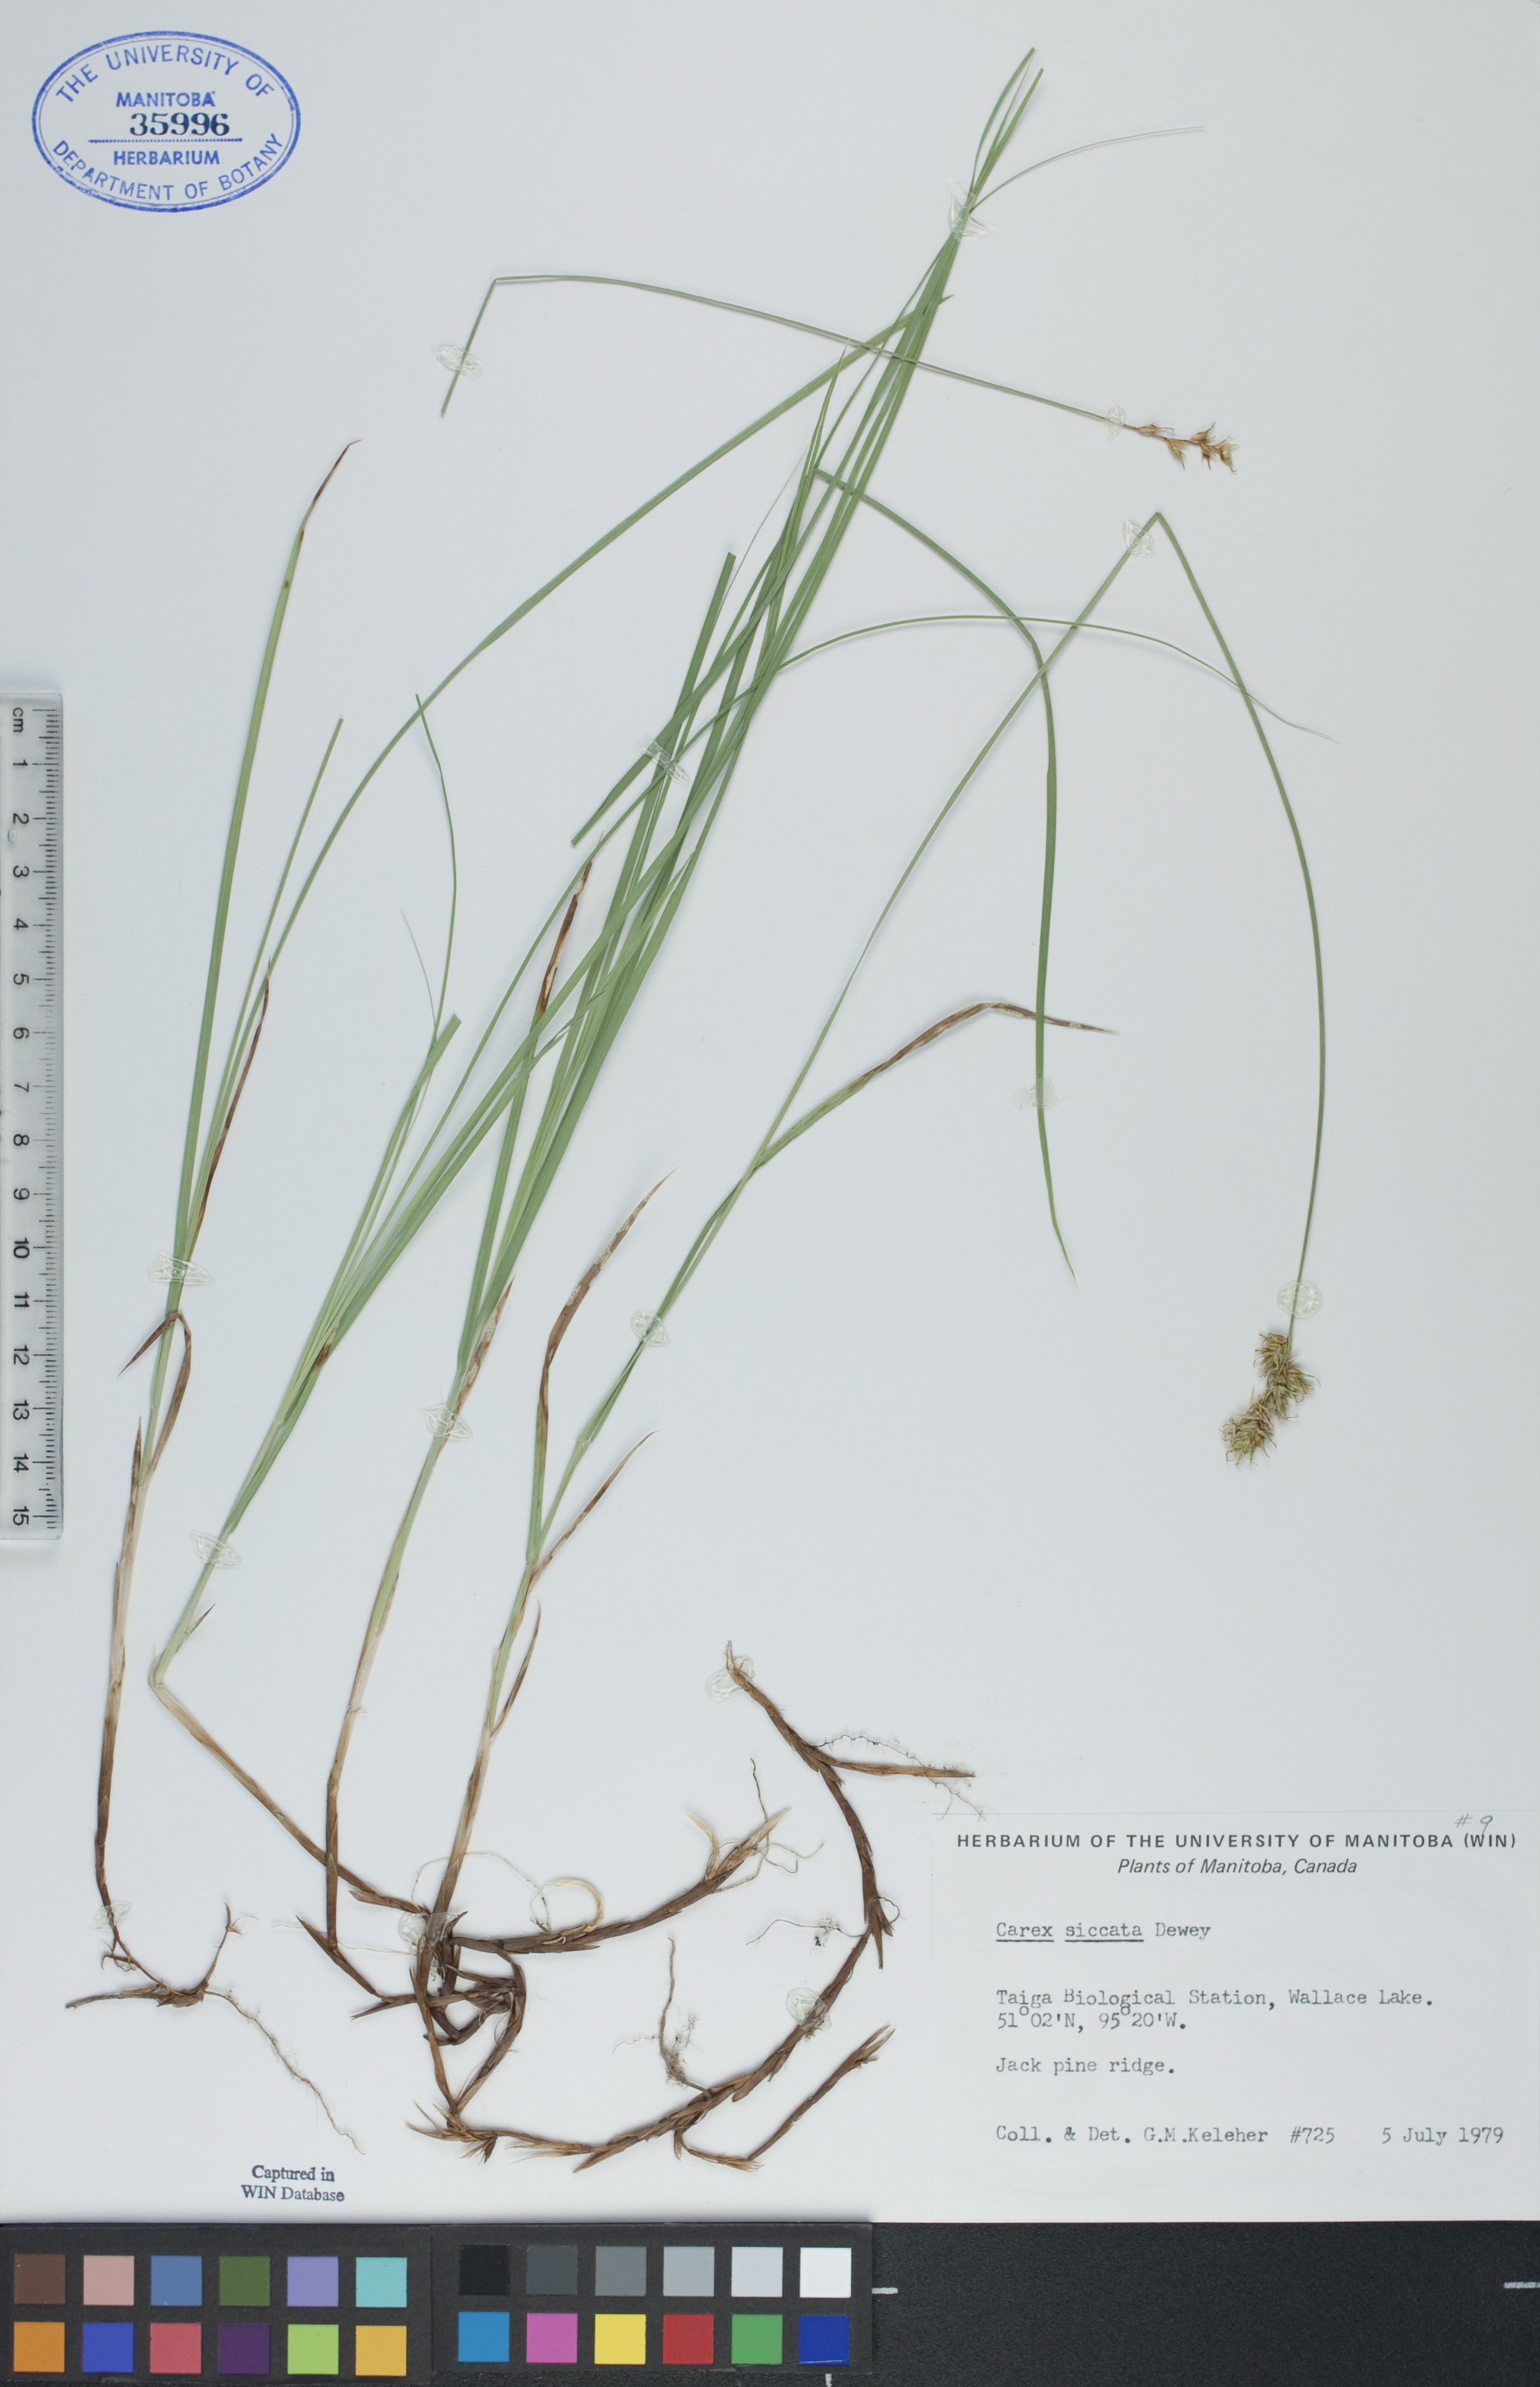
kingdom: Plantae
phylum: Tracheophyta
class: Liliopsida
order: Poales
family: Cyperaceae
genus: Carex
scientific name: Carex siccata
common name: Dry sedge
